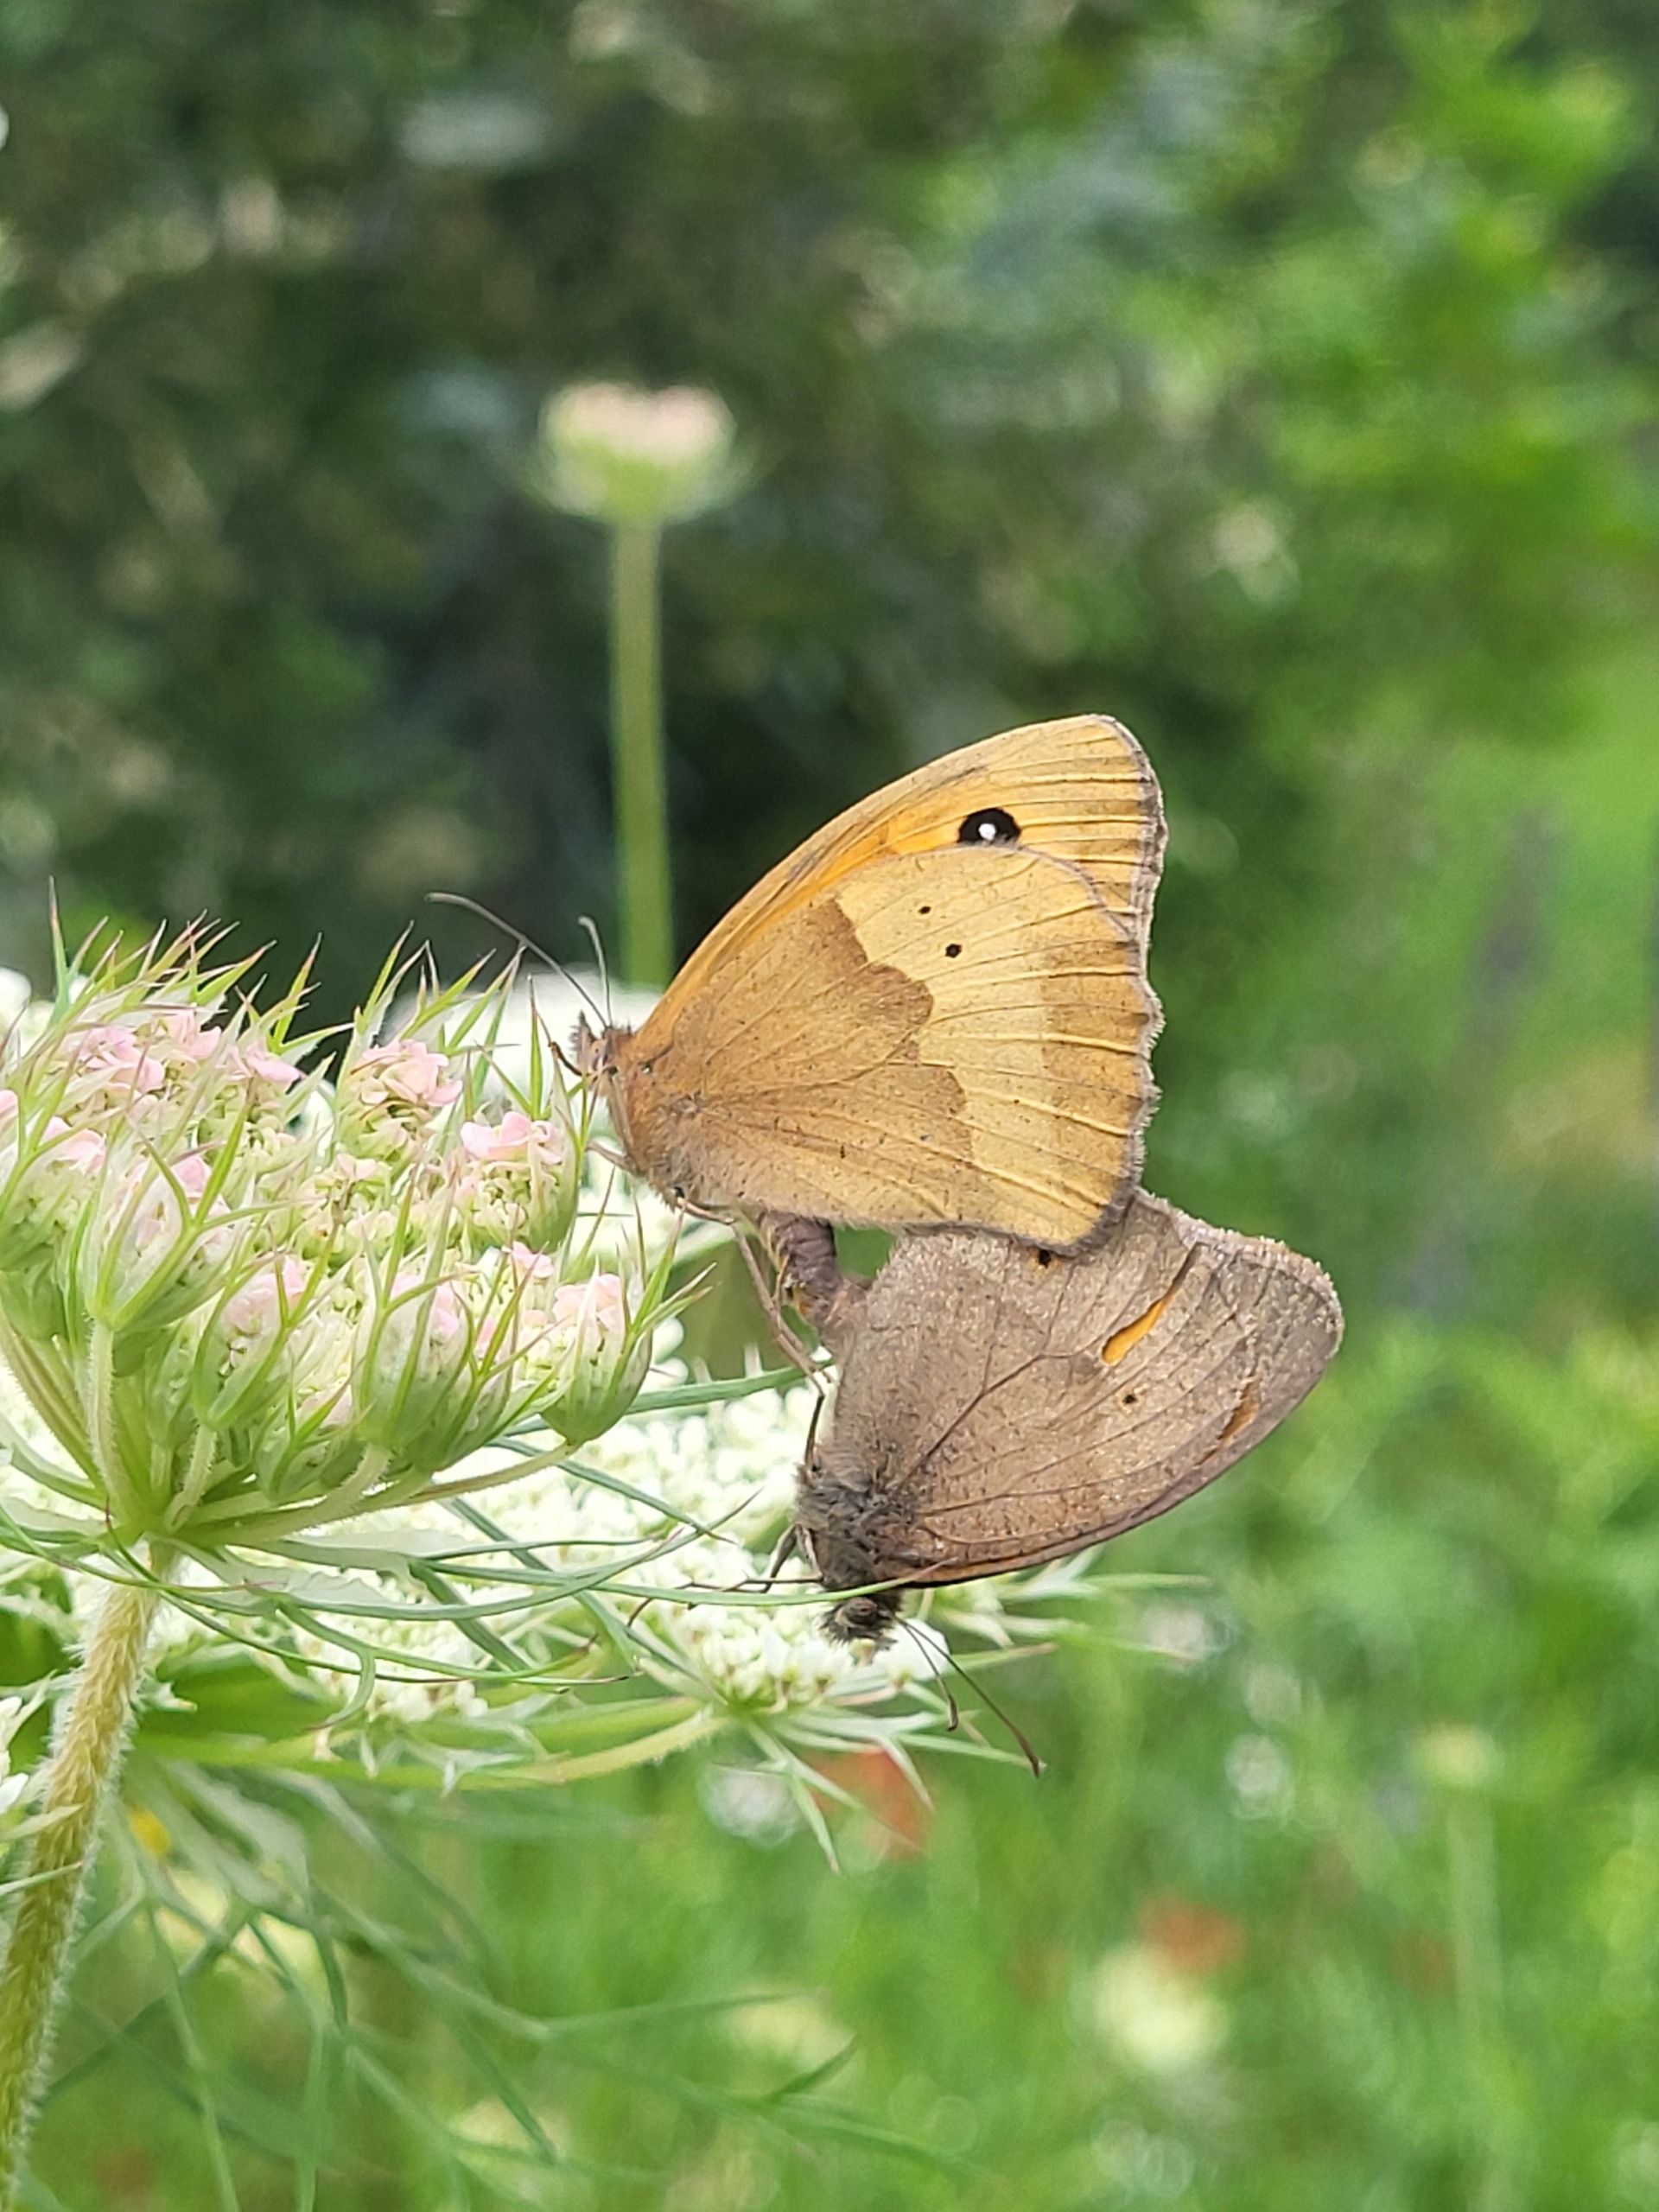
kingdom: Animalia
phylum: Arthropoda
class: Insecta
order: Lepidoptera
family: Nymphalidae
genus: Maniola
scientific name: Maniola jurtina
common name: Græsrandøje
